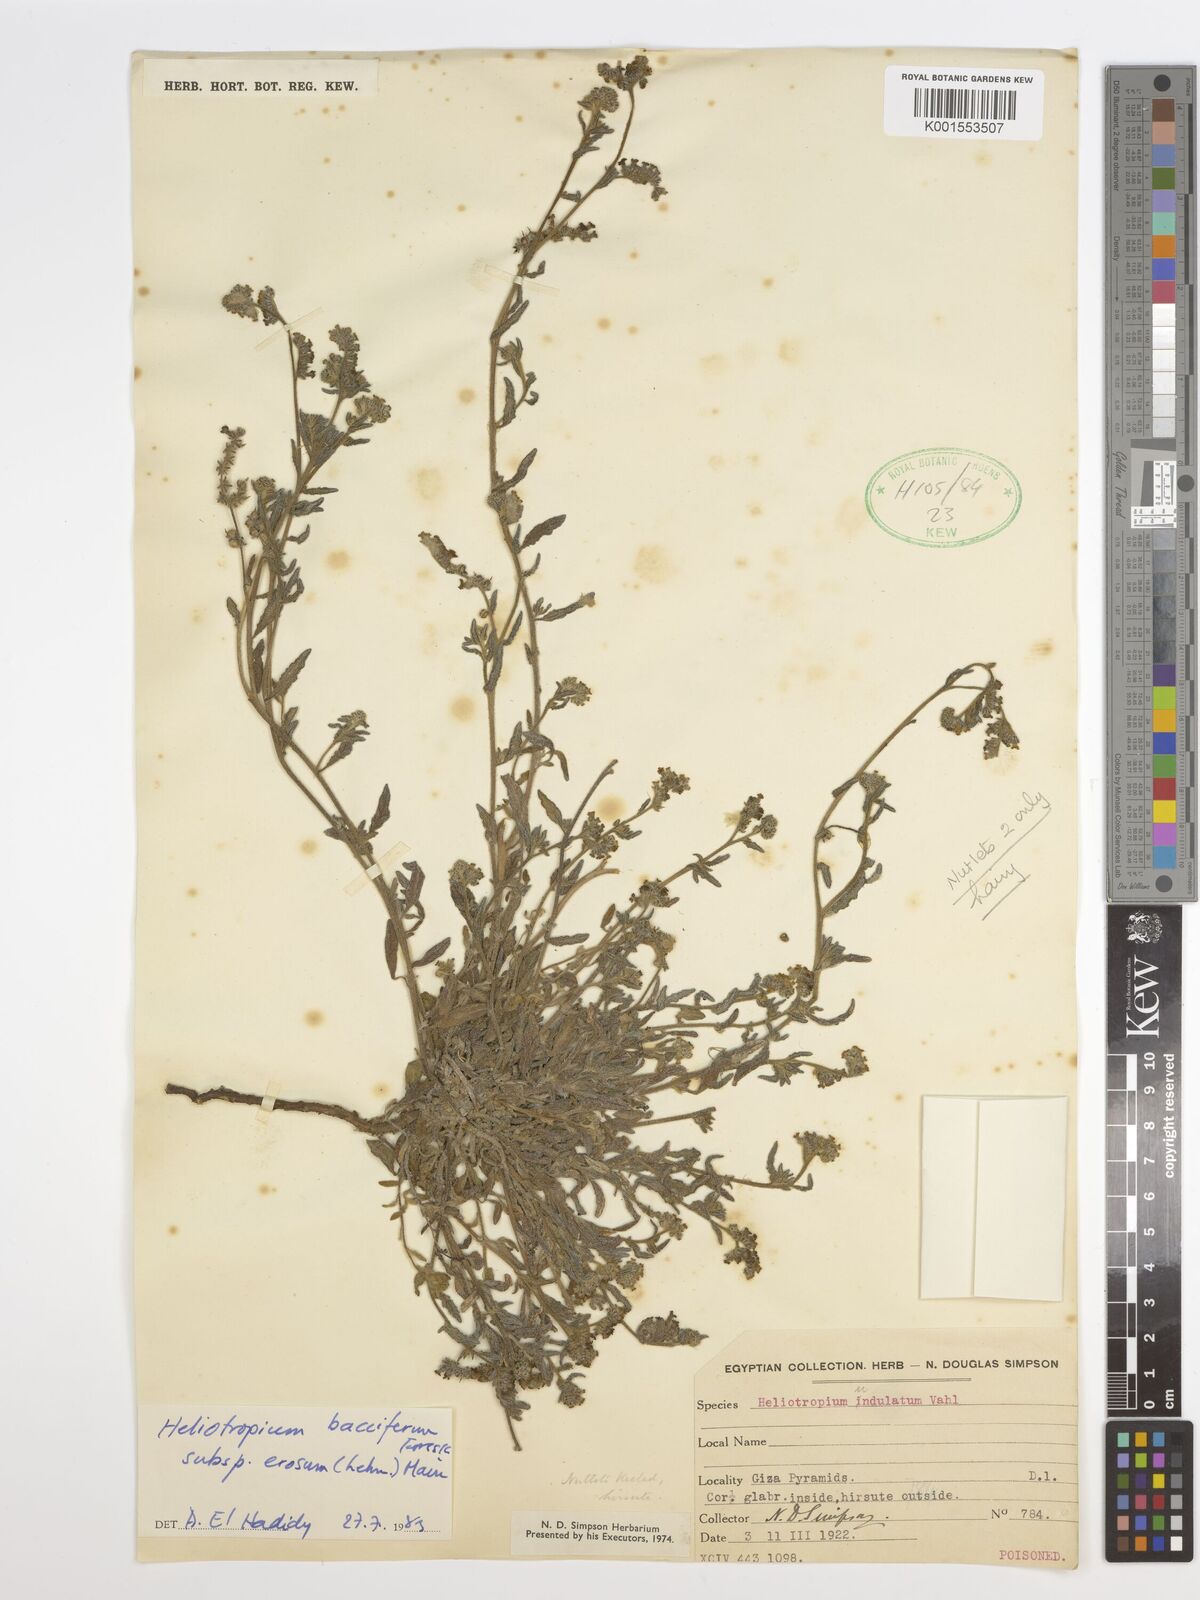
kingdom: Plantae
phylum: Tracheophyta
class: Magnoliopsida
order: Boraginales
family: Heliotropiaceae
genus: Heliotropium
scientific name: Heliotropium crispum
